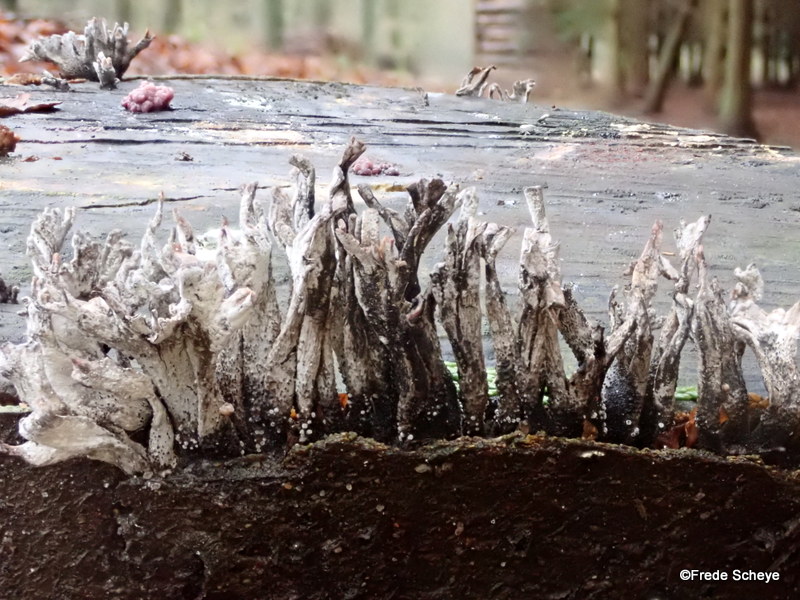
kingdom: Fungi
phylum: Ascomycota
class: Sordariomycetes
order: Xylariales
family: Xylariaceae
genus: Xylaria
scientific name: Xylaria hypoxylon
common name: grenet stødsvamp
